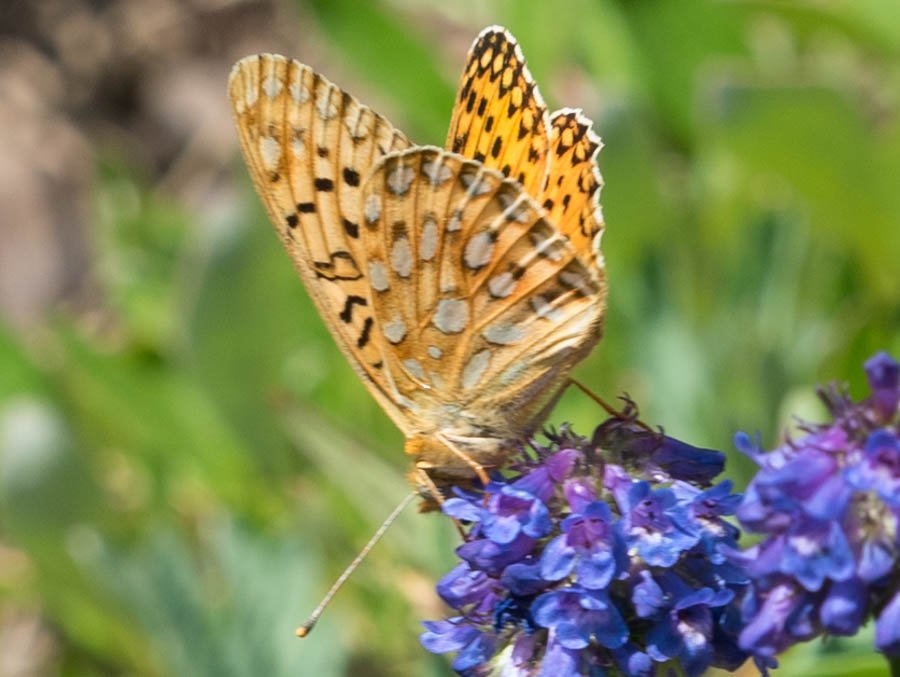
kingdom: Animalia
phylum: Arthropoda
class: Insecta
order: Lepidoptera
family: Nymphalidae
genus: Speyeria
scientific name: Speyeria mormonia
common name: Mormon Fritillary
